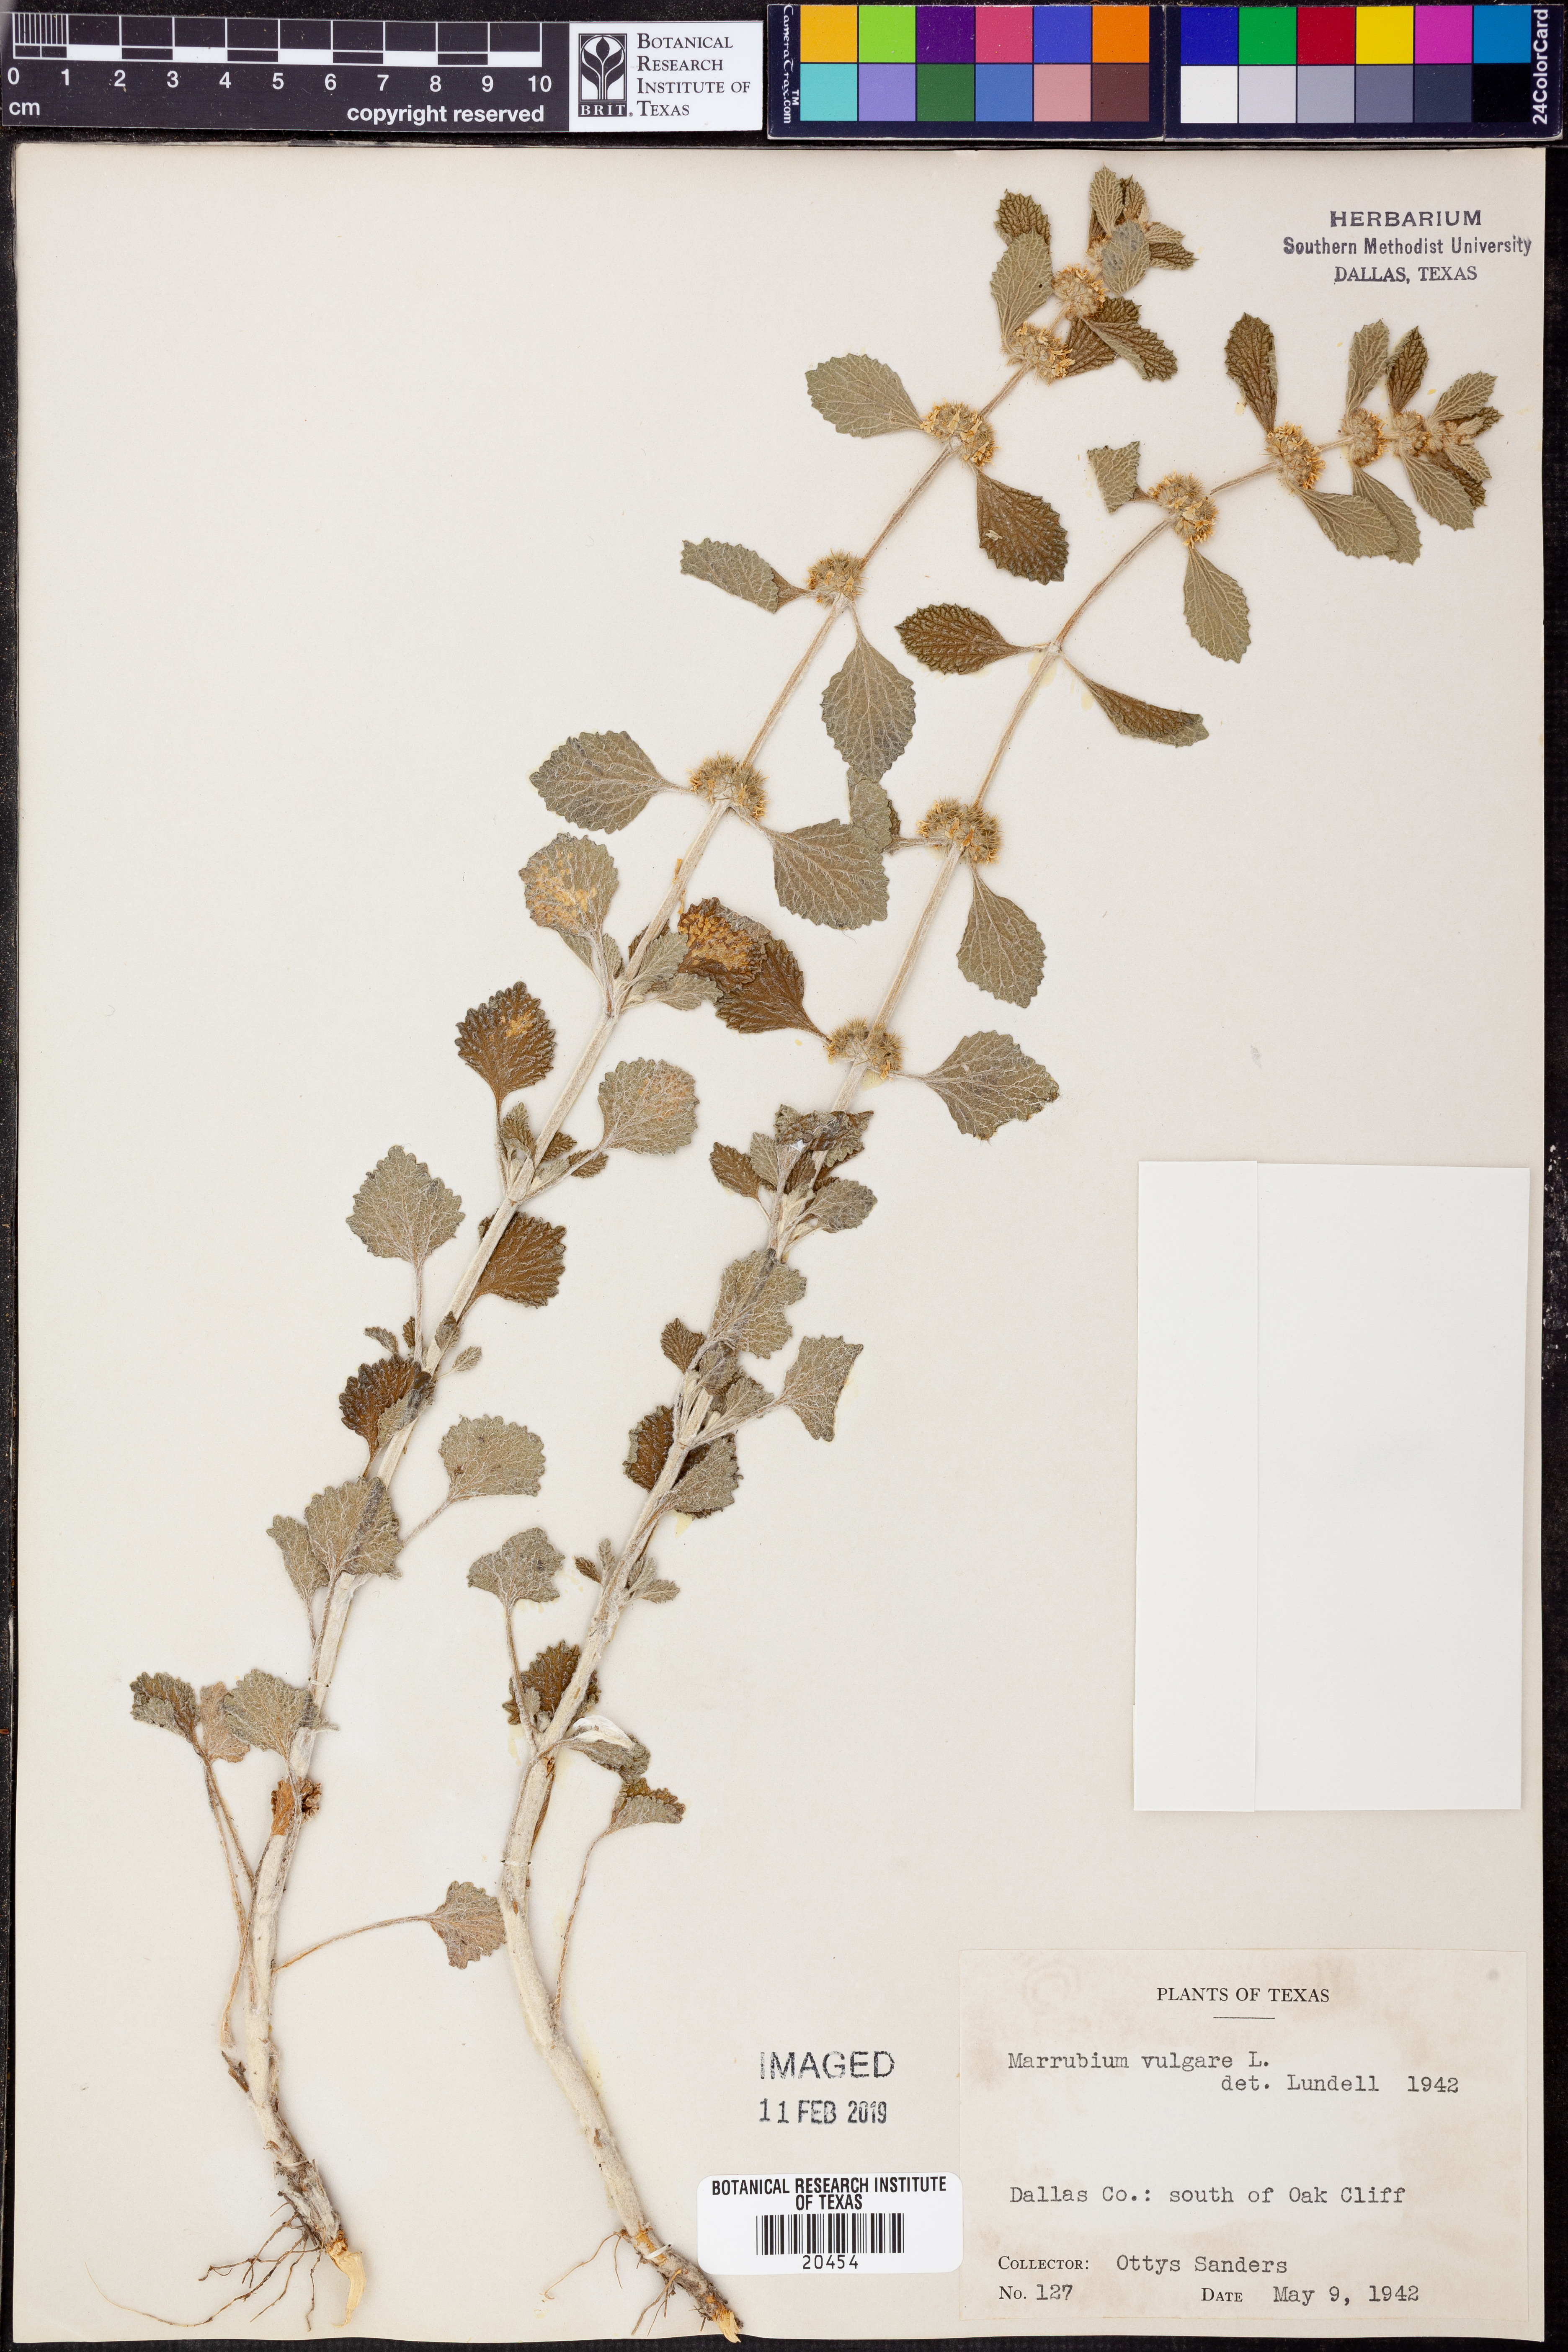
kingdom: Plantae
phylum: Tracheophyta
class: Magnoliopsida
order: Lamiales
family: Lamiaceae
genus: Marrubium
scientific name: Marrubium vulgare
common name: Horehound
